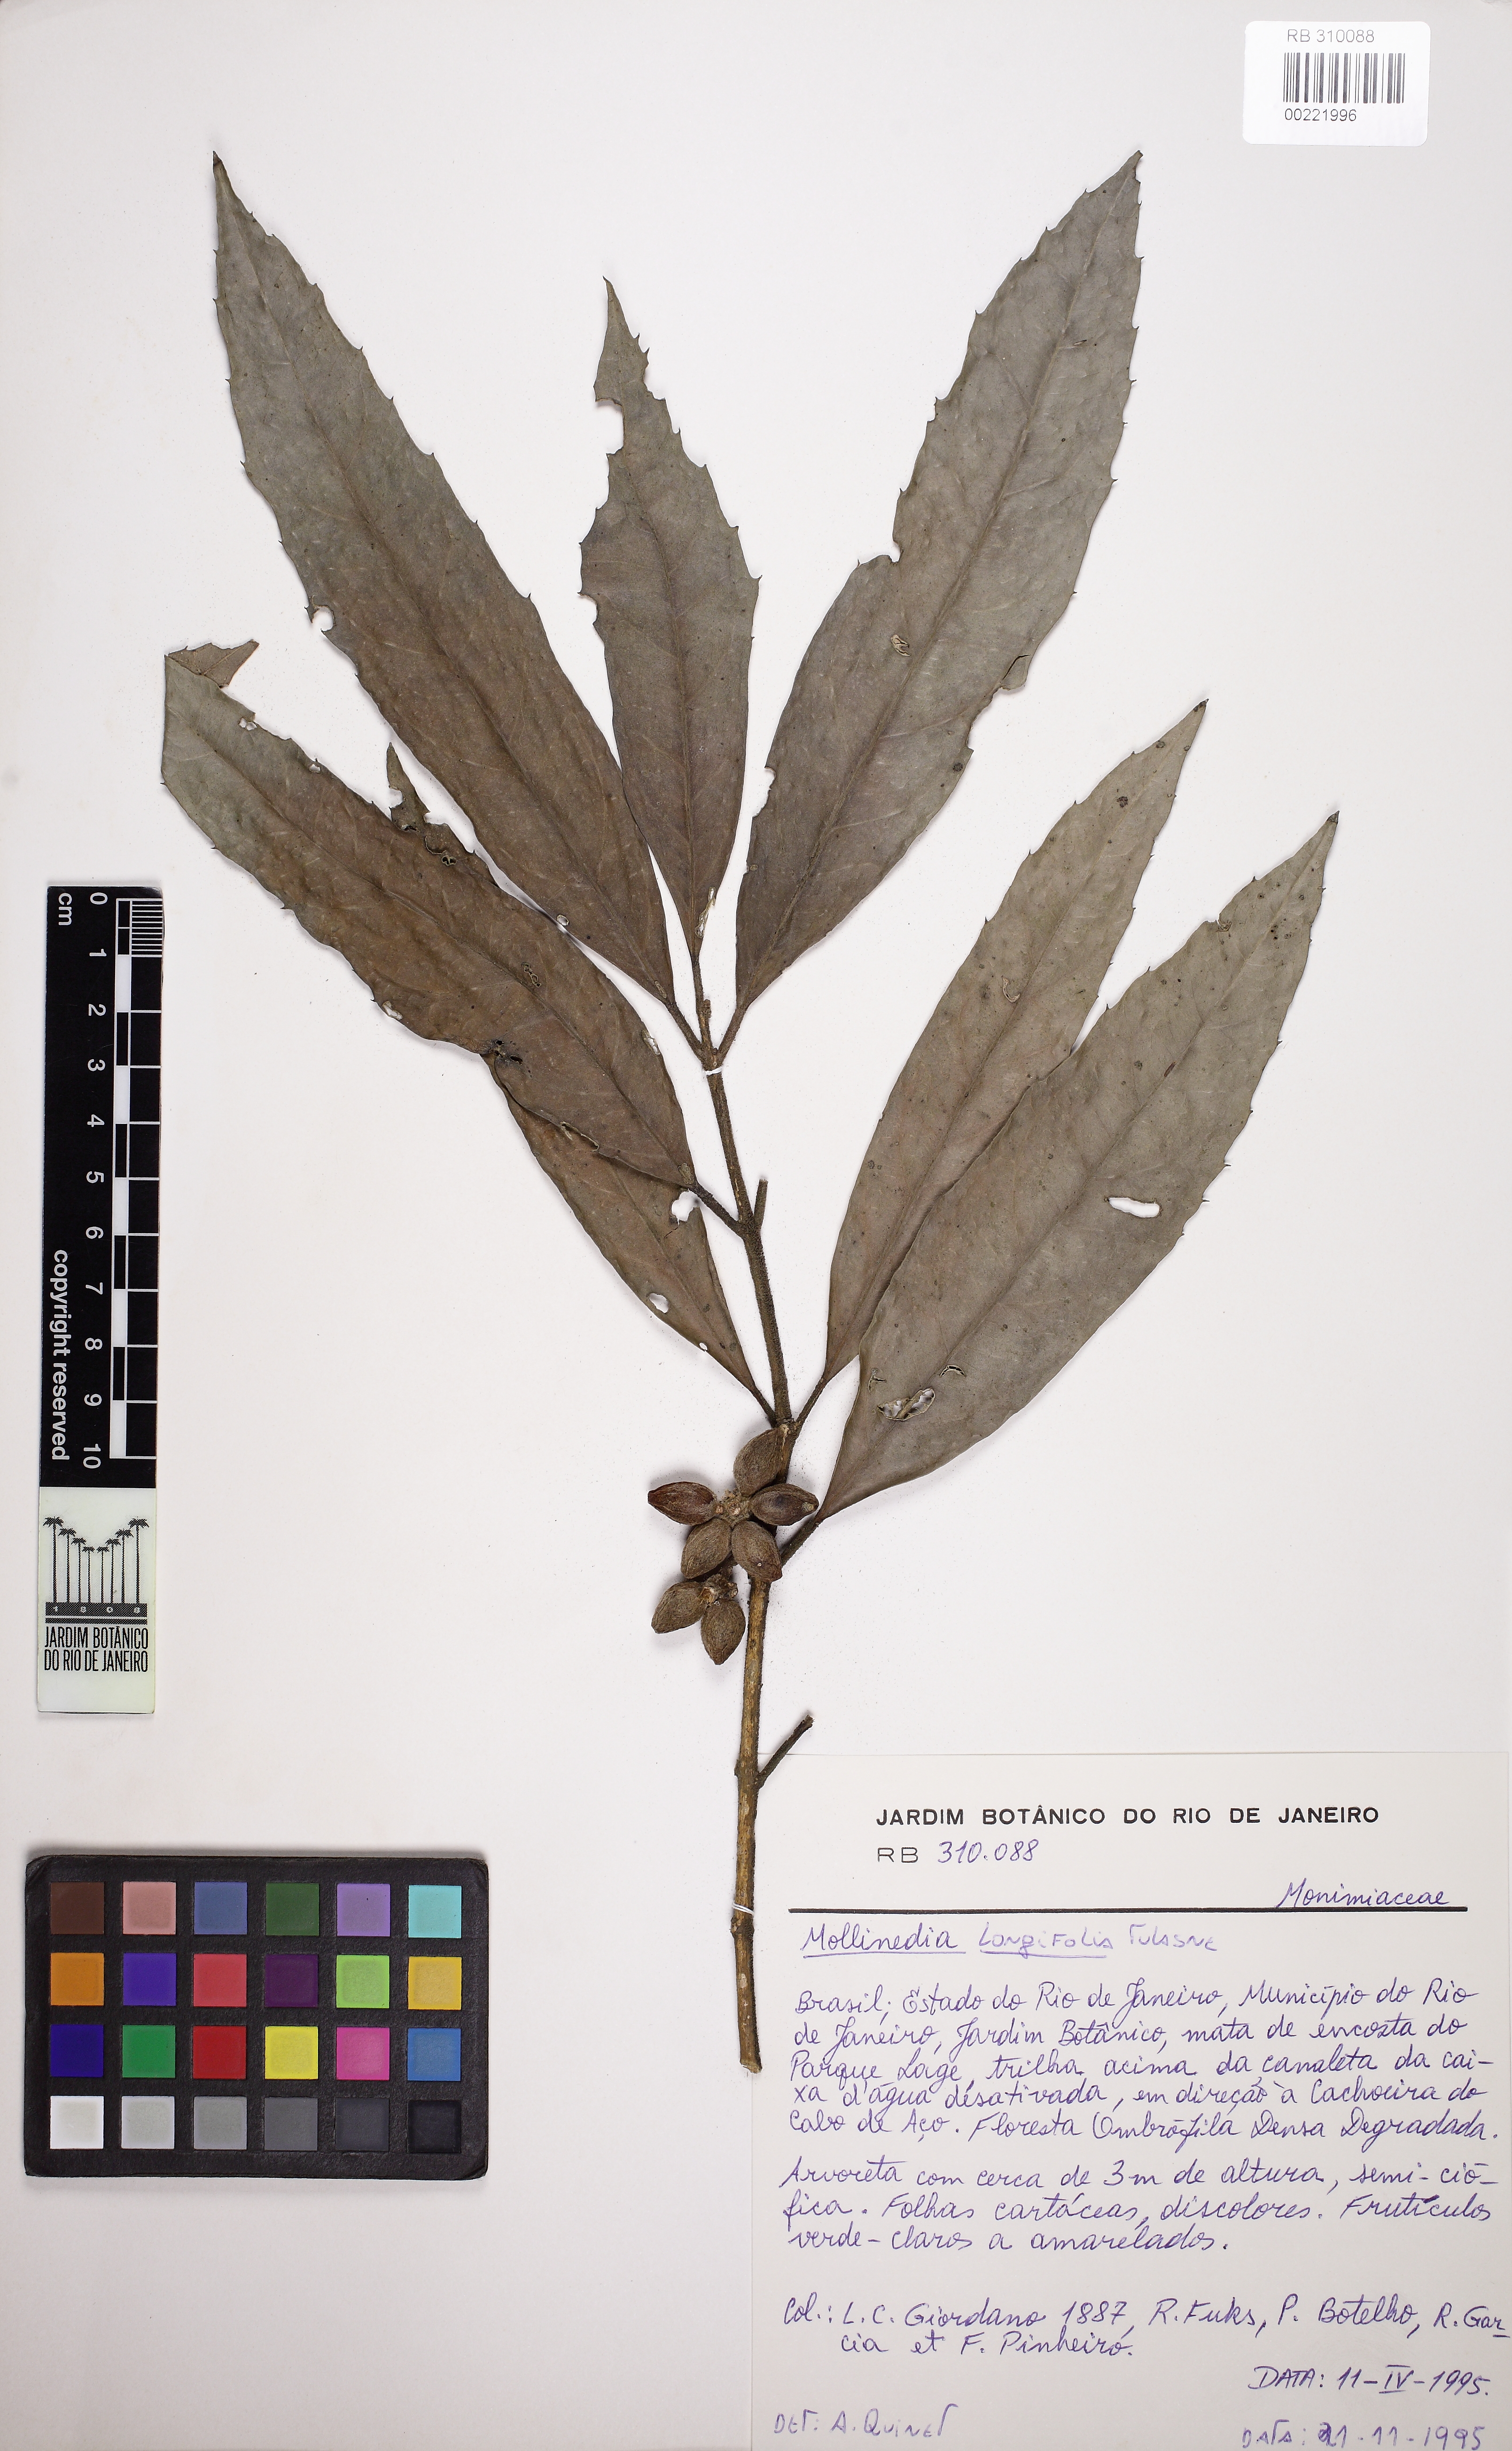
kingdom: Plantae
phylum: Tracheophyta
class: Magnoliopsida
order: Laurales
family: Monimiaceae
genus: Mollinedia
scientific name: Mollinedia longifolia
